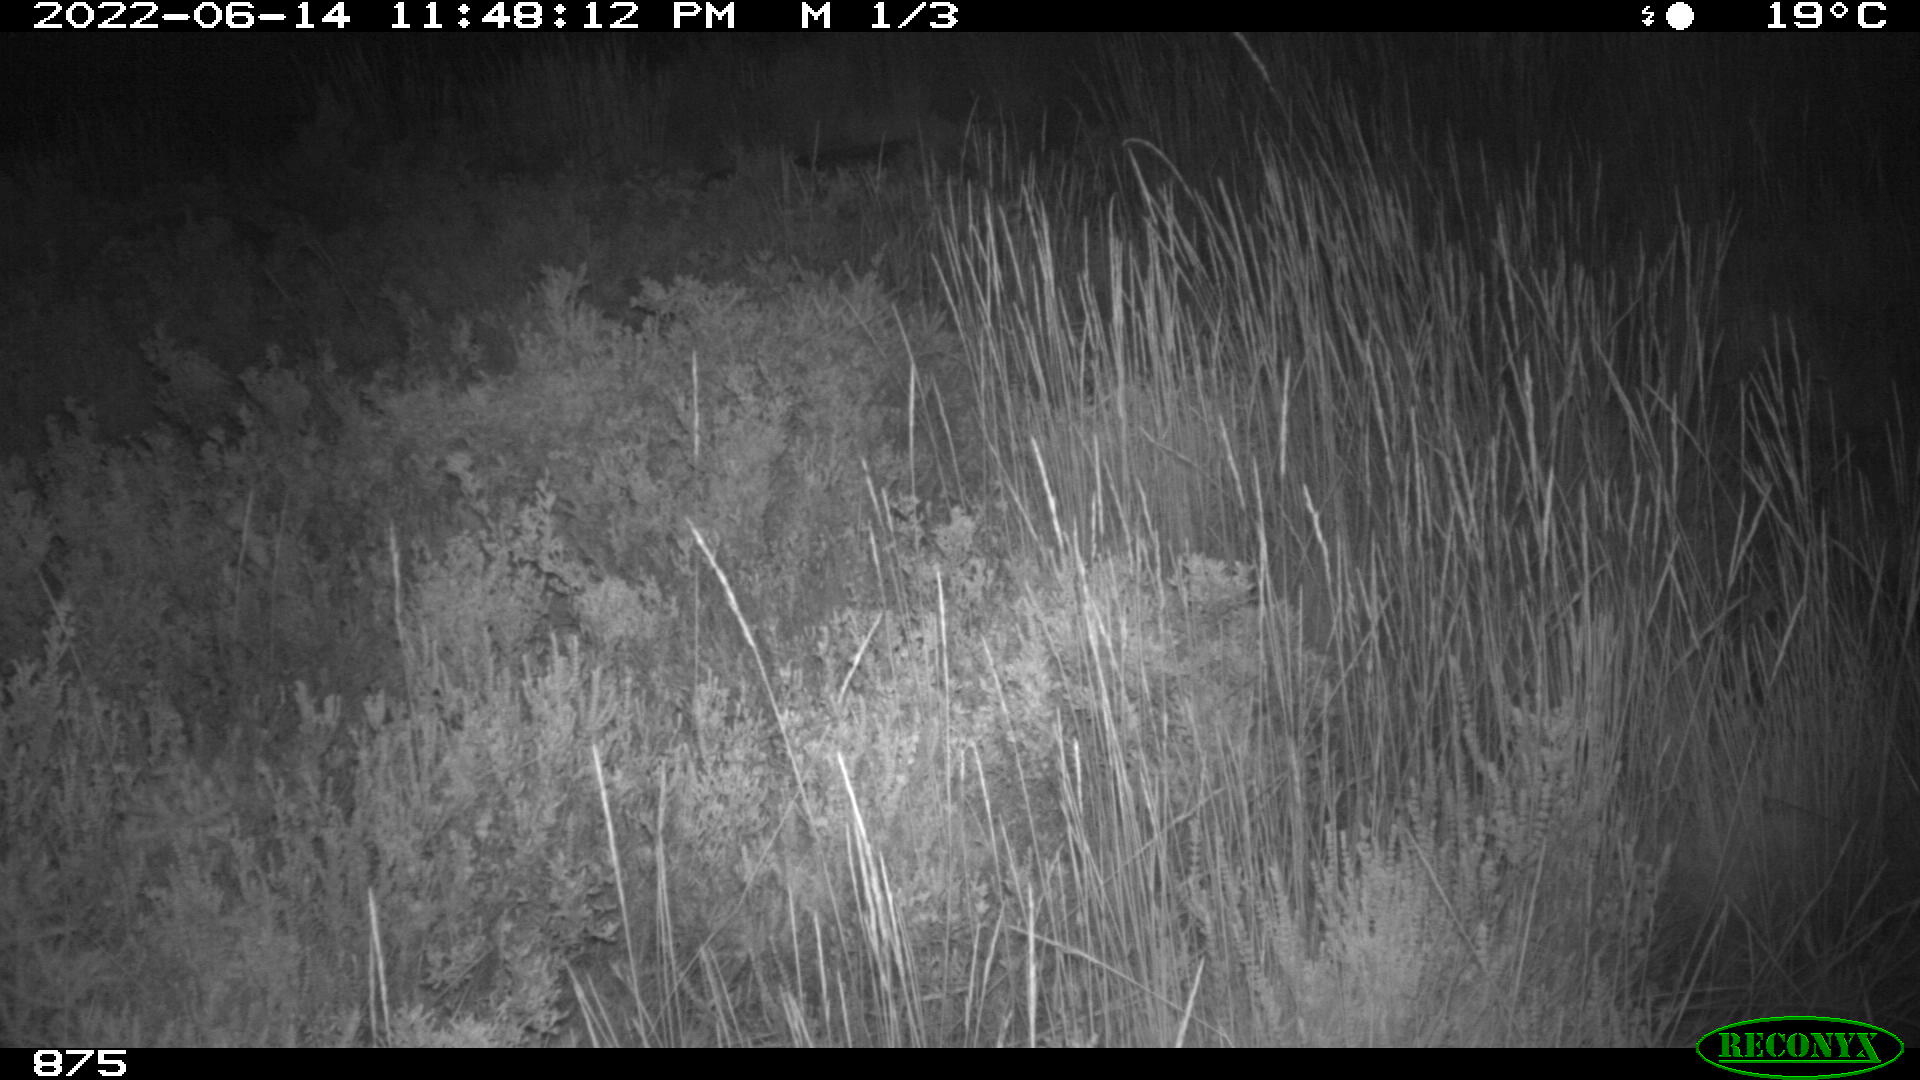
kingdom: Animalia
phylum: Chordata
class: Mammalia
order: Perissodactyla
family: Equidae
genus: Equus
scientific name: Equus caballus
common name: Horse
